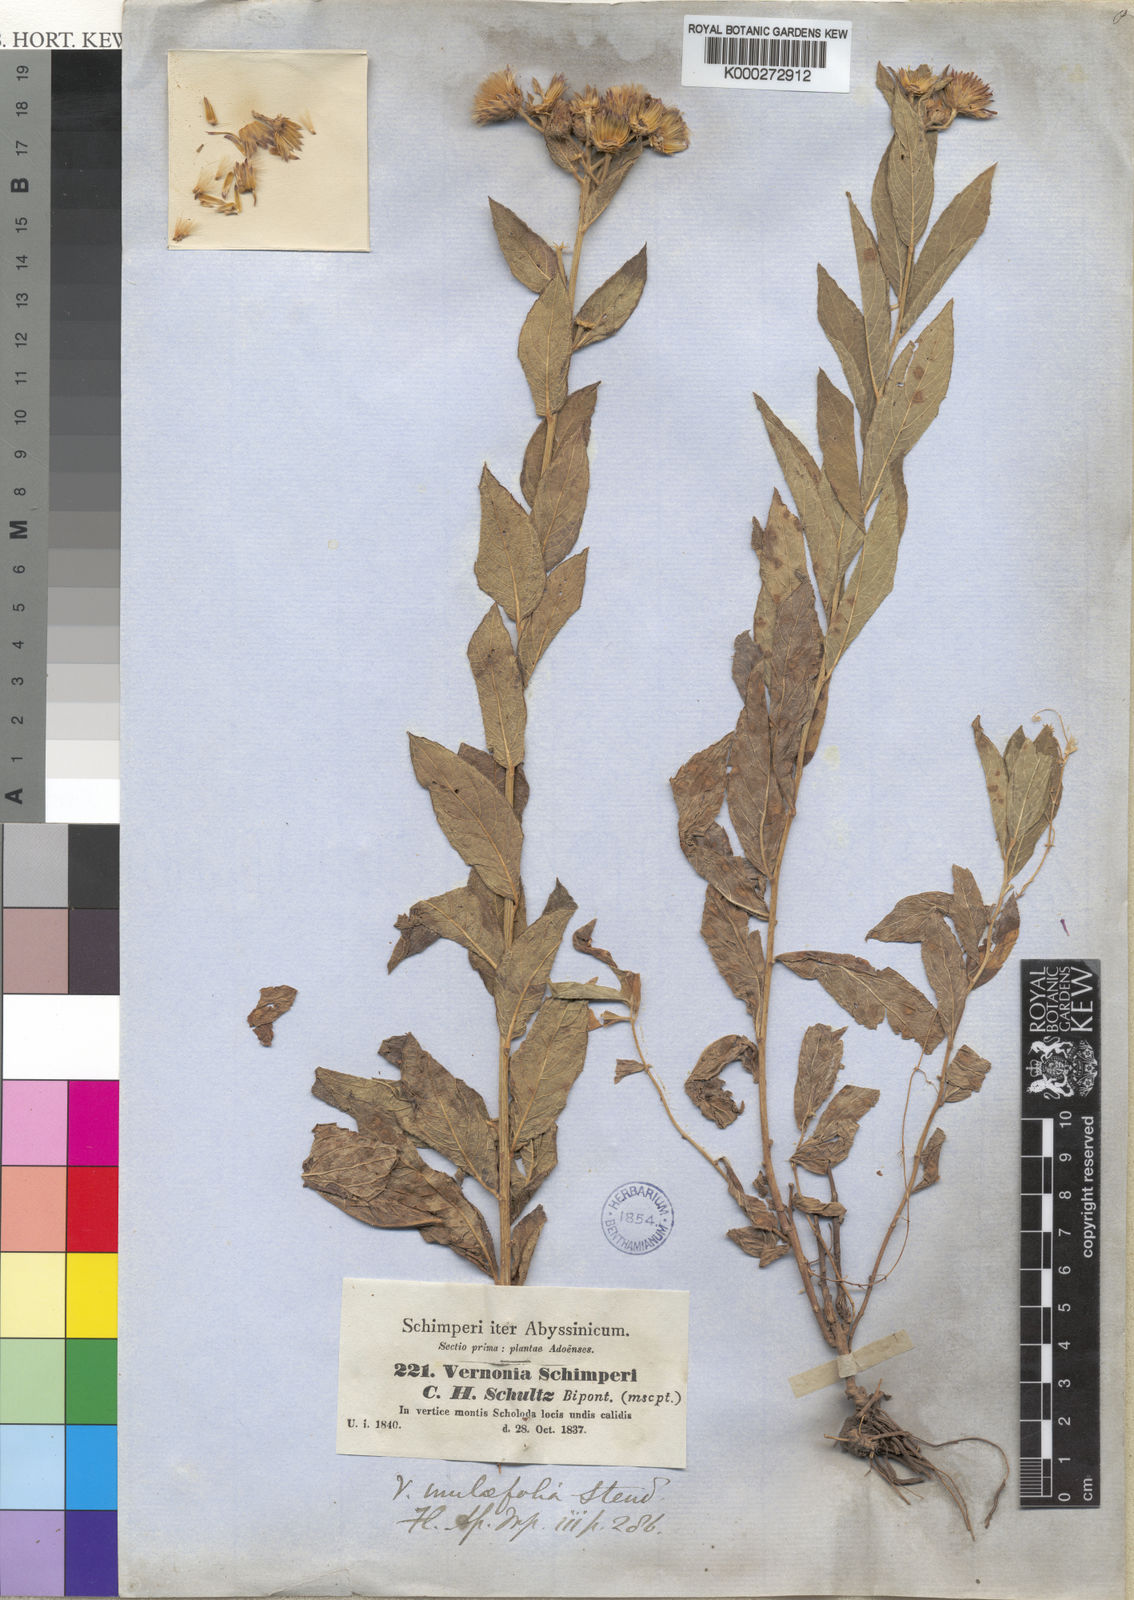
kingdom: Plantae
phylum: Tracheophyta
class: Magnoliopsida
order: Asterales
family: Asteraceae
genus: Nothovernonia
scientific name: Nothovernonia purpurea
